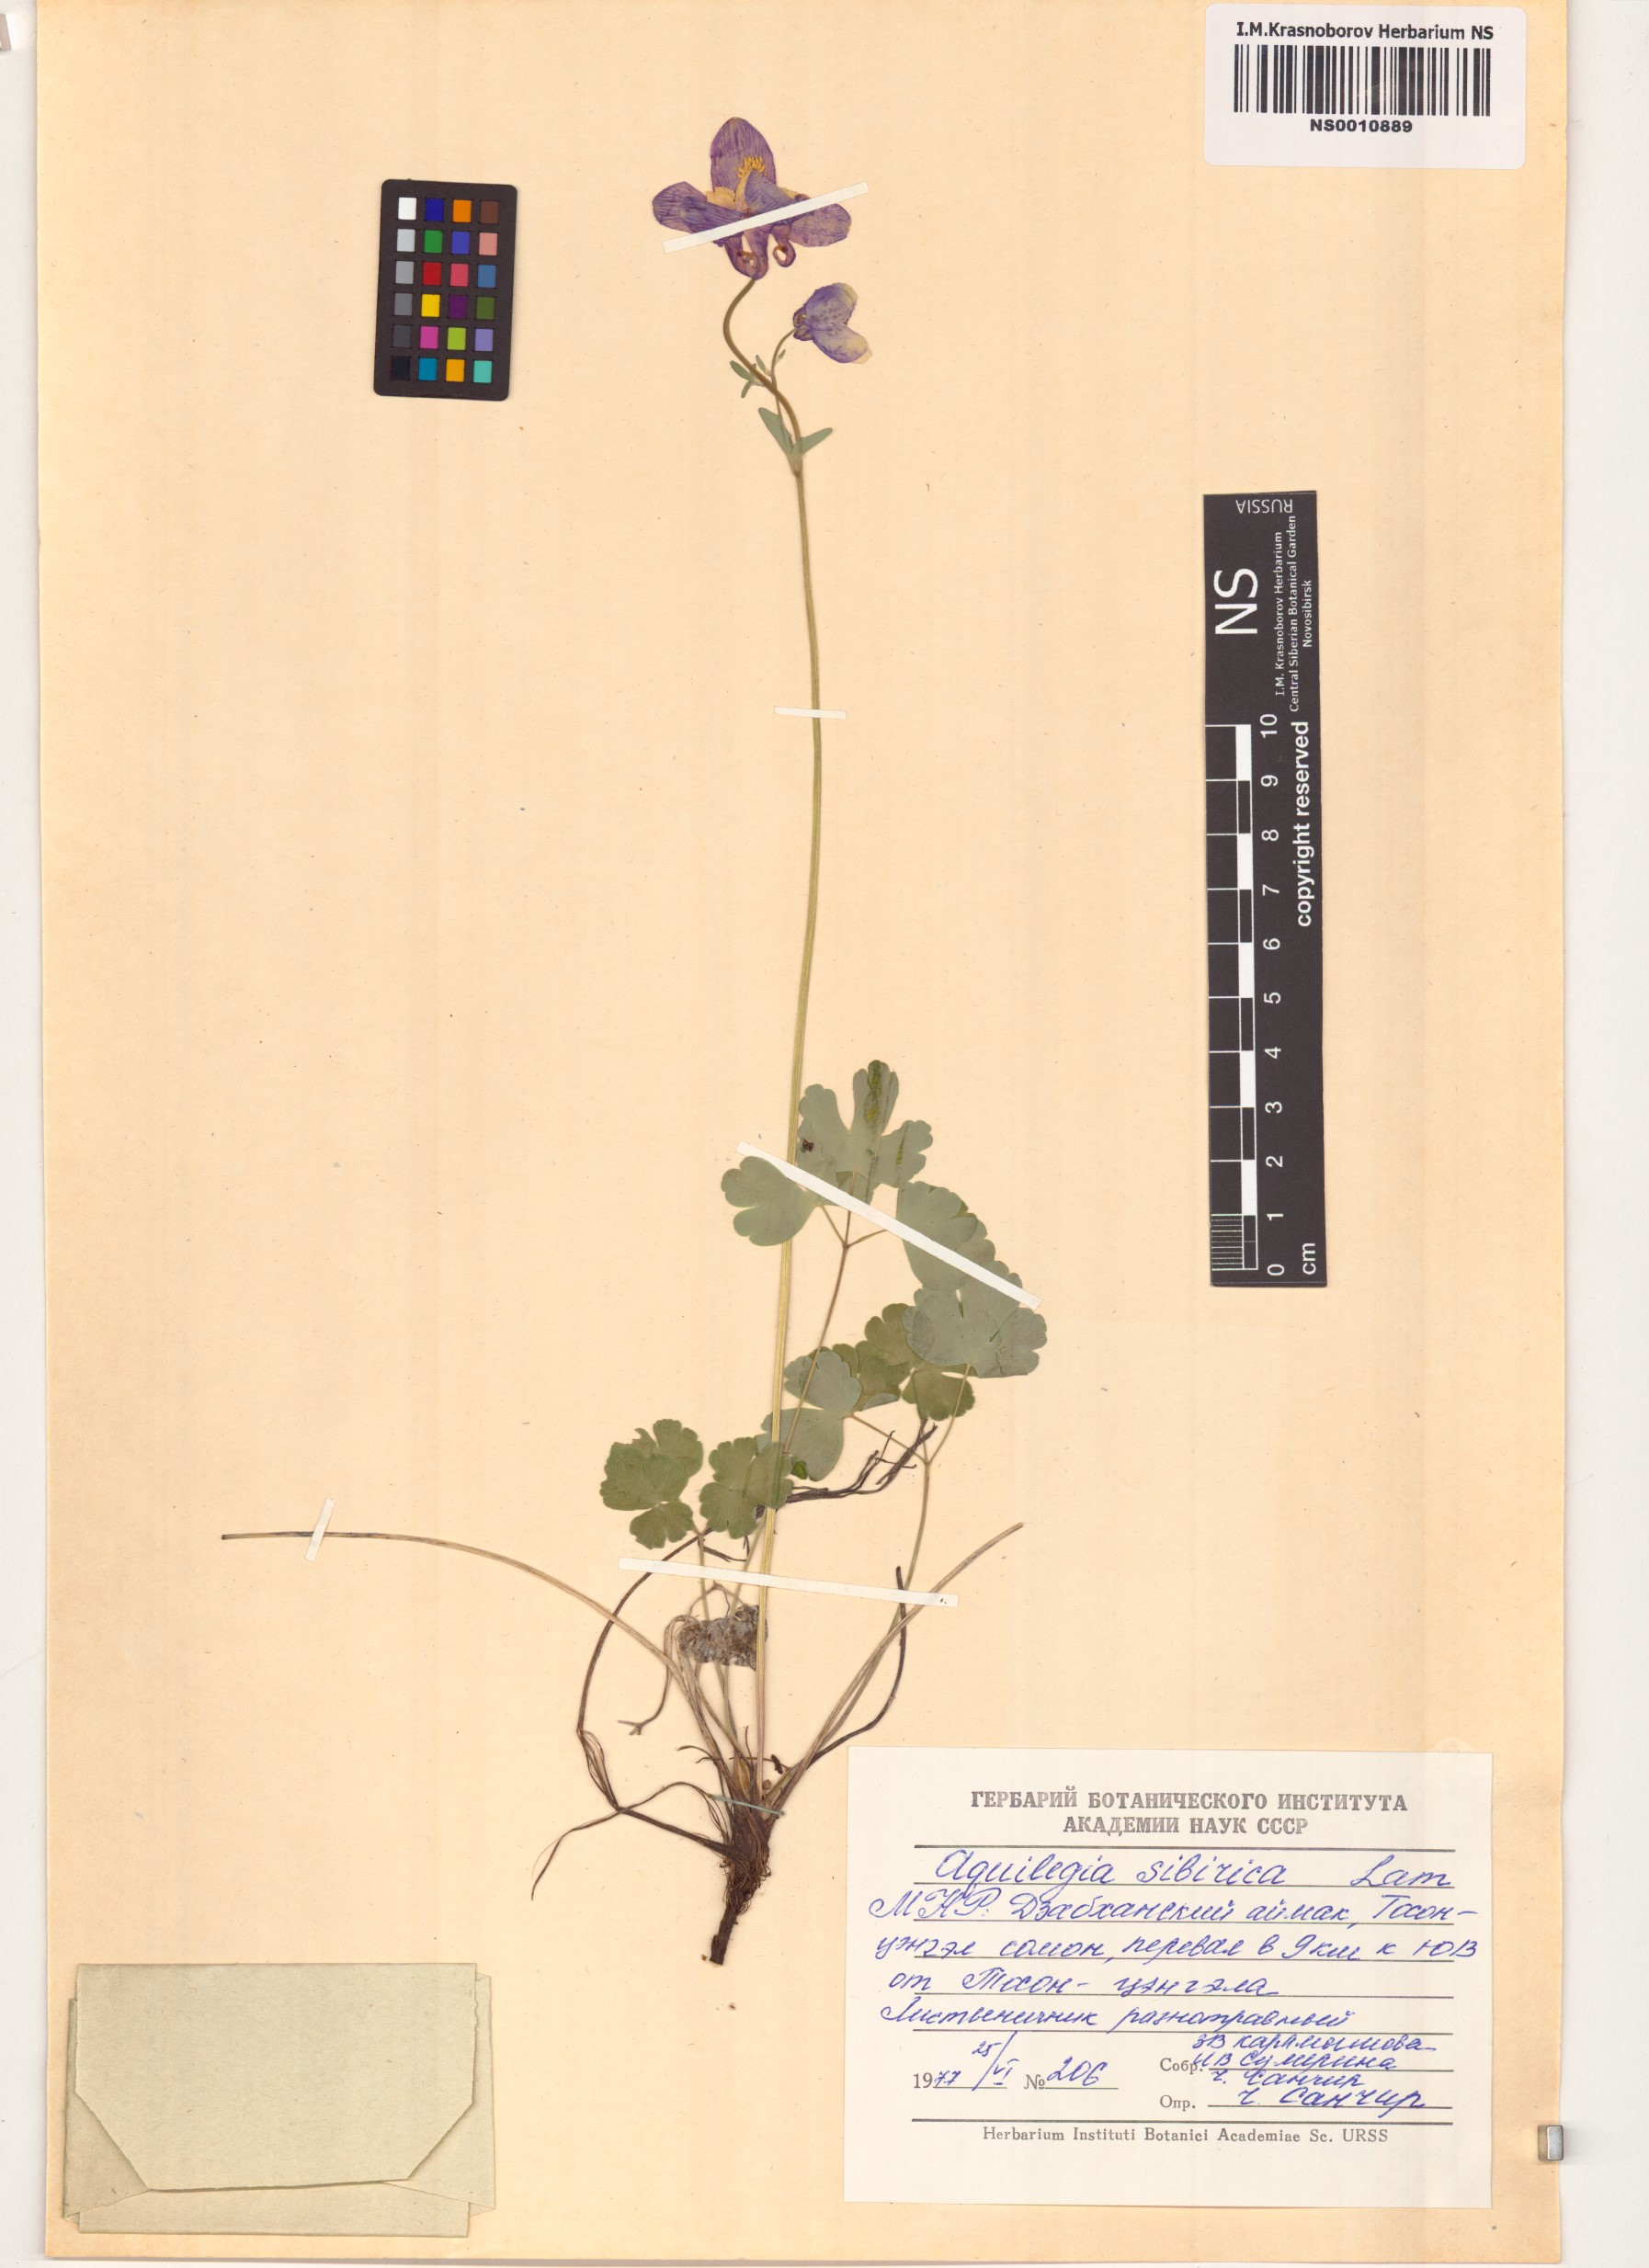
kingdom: Plantae
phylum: Tracheophyta
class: Magnoliopsida
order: Ranunculales
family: Ranunculaceae
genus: Aquilegia
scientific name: Aquilegia sibirica
